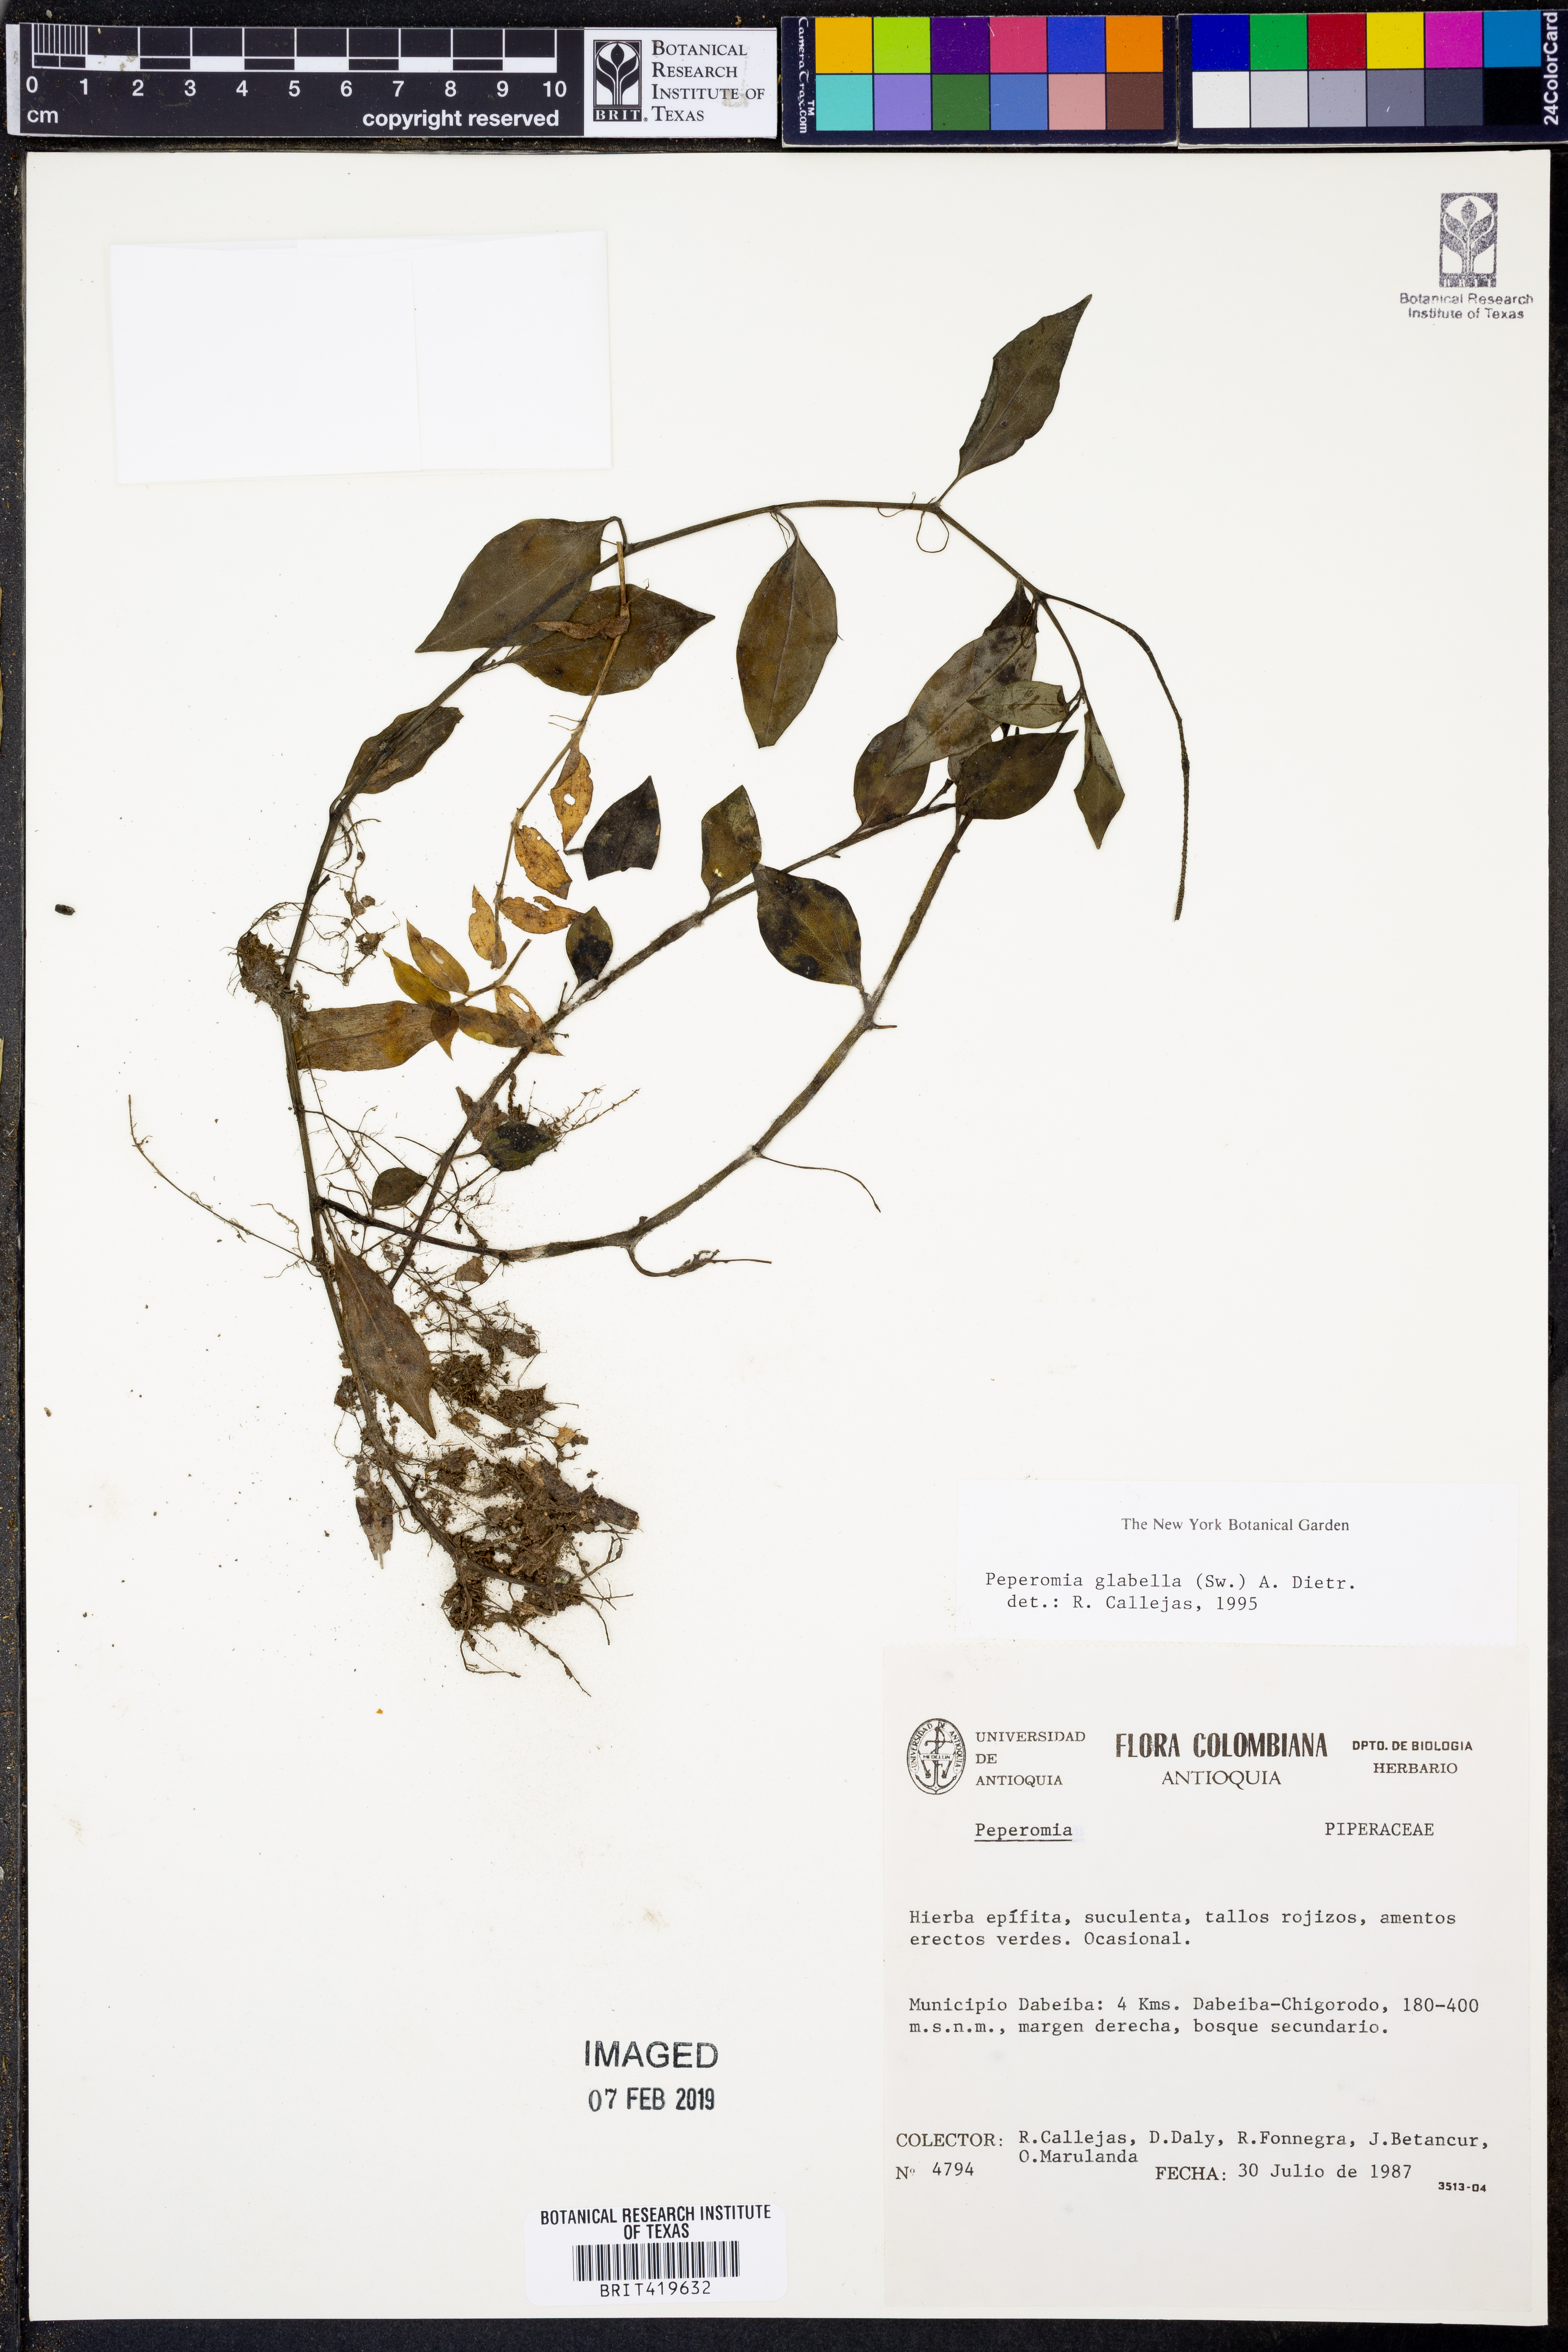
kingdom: Plantae
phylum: Tracheophyta
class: Magnoliopsida
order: Piperales
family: Piperaceae
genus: Peperomia
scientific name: Peperomia glabella
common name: Cypress peperomia
